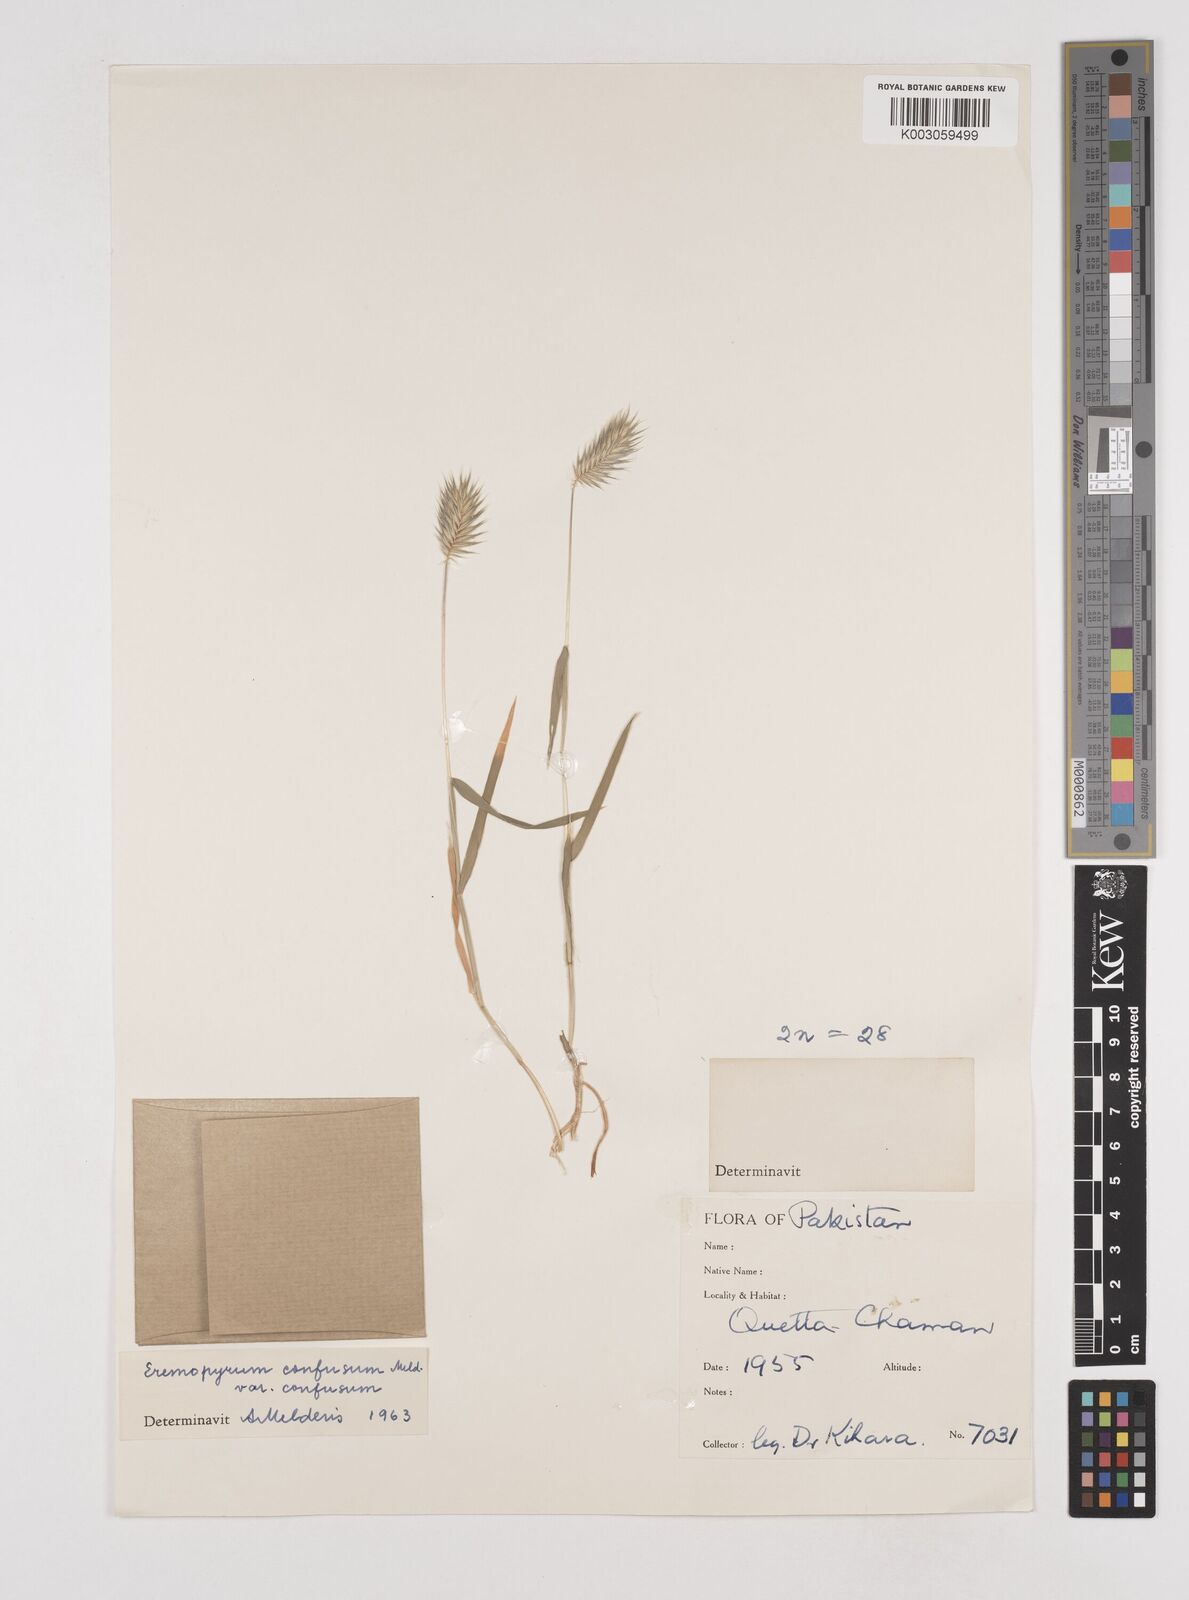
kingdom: Plantae
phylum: Tracheophyta
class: Liliopsida
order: Poales
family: Poaceae
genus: Eremopyrum
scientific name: Eremopyrum bonaepartis
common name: Tapertip false wheatgrass
